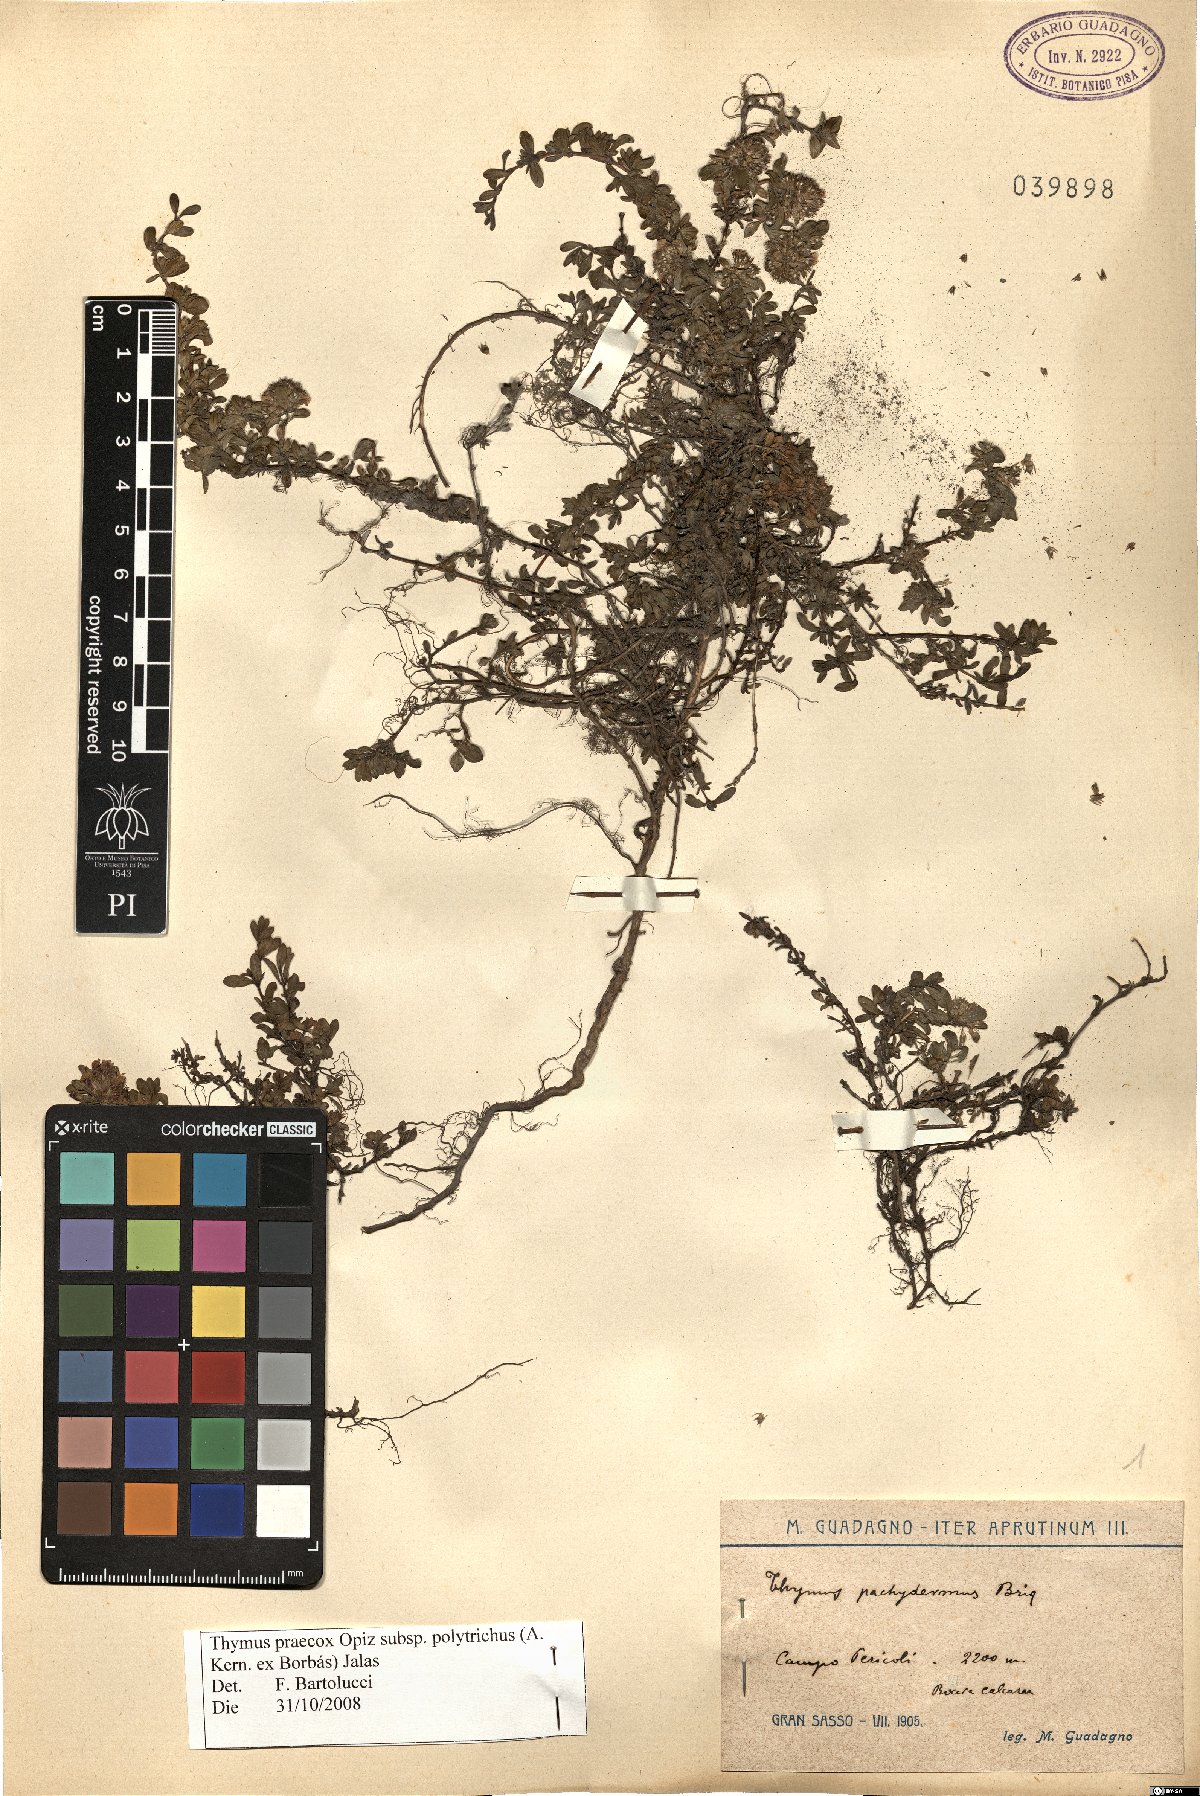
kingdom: Plantae
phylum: Tracheophyta
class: Magnoliopsida
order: Lamiales
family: Lamiaceae
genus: Thymus
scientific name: Thymus praecox
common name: Wild thyme
